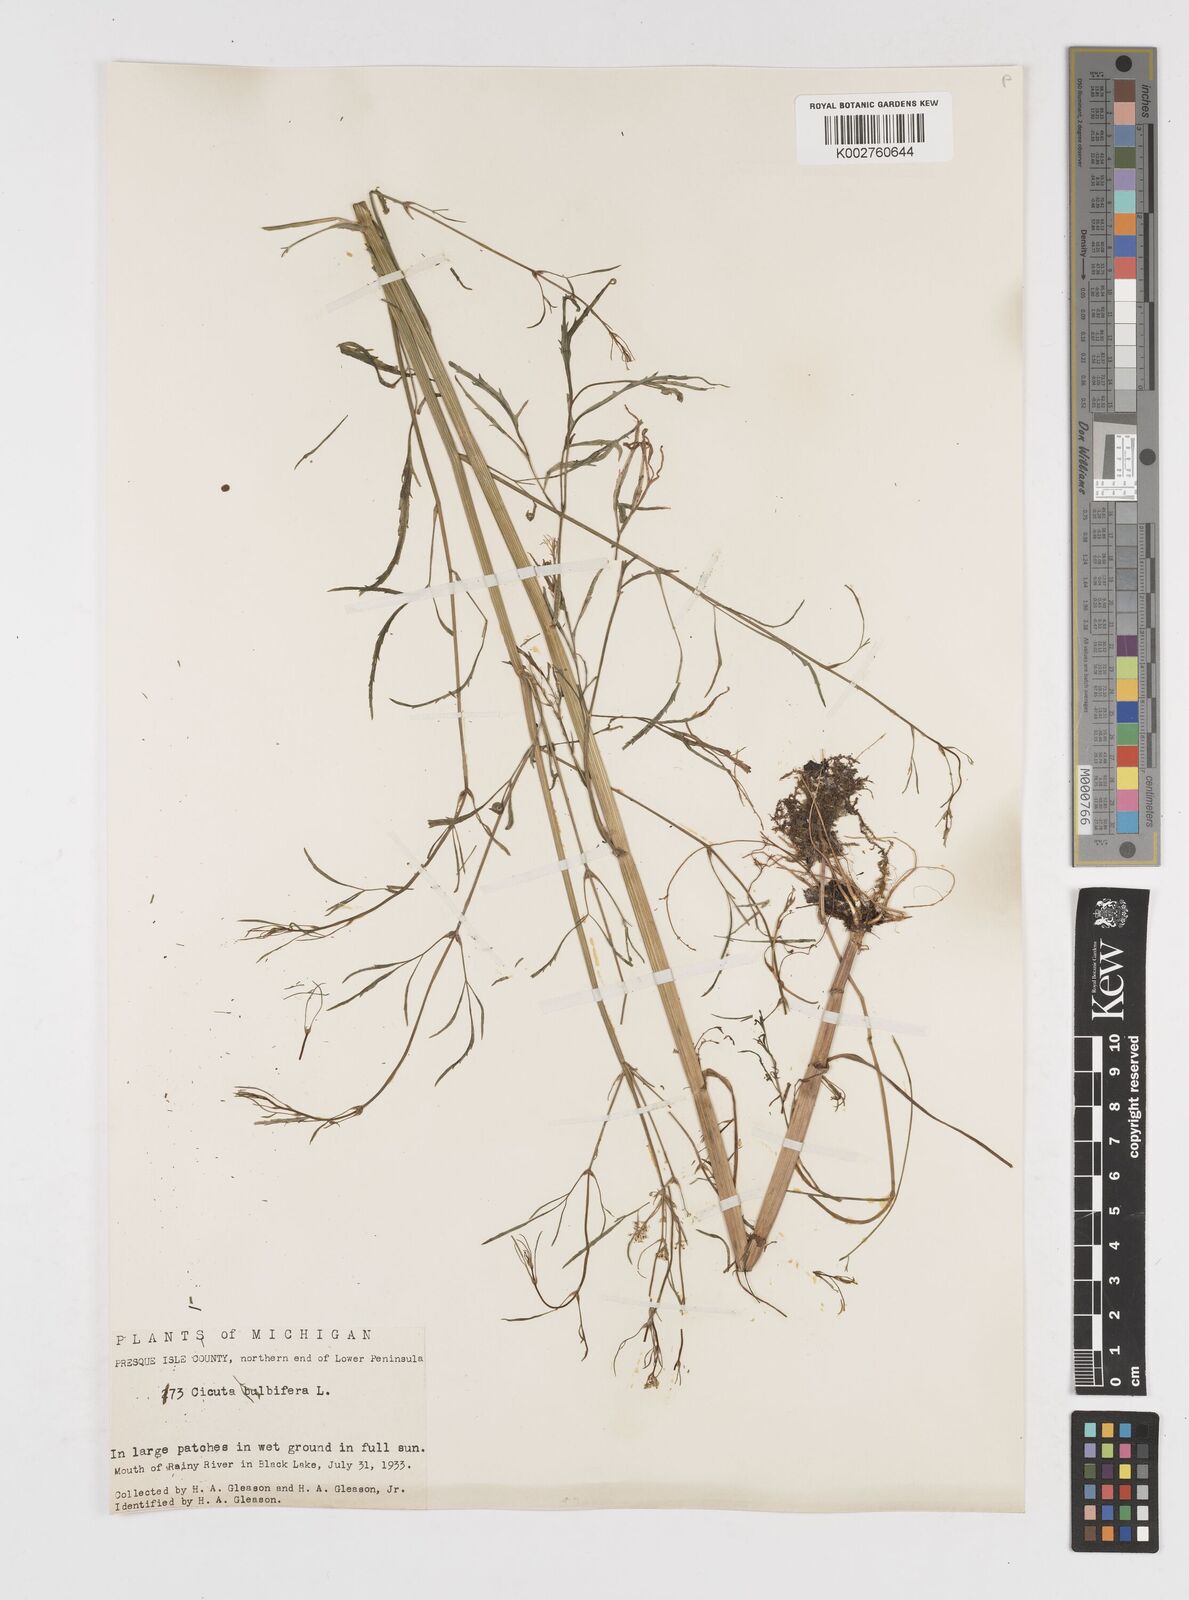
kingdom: Plantae
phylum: Tracheophyta
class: Magnoliopsida
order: Apiales
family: Apiaceae
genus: Cicuta
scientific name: Cicuta bulbifera
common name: Bulb-bearing water-hemlock
